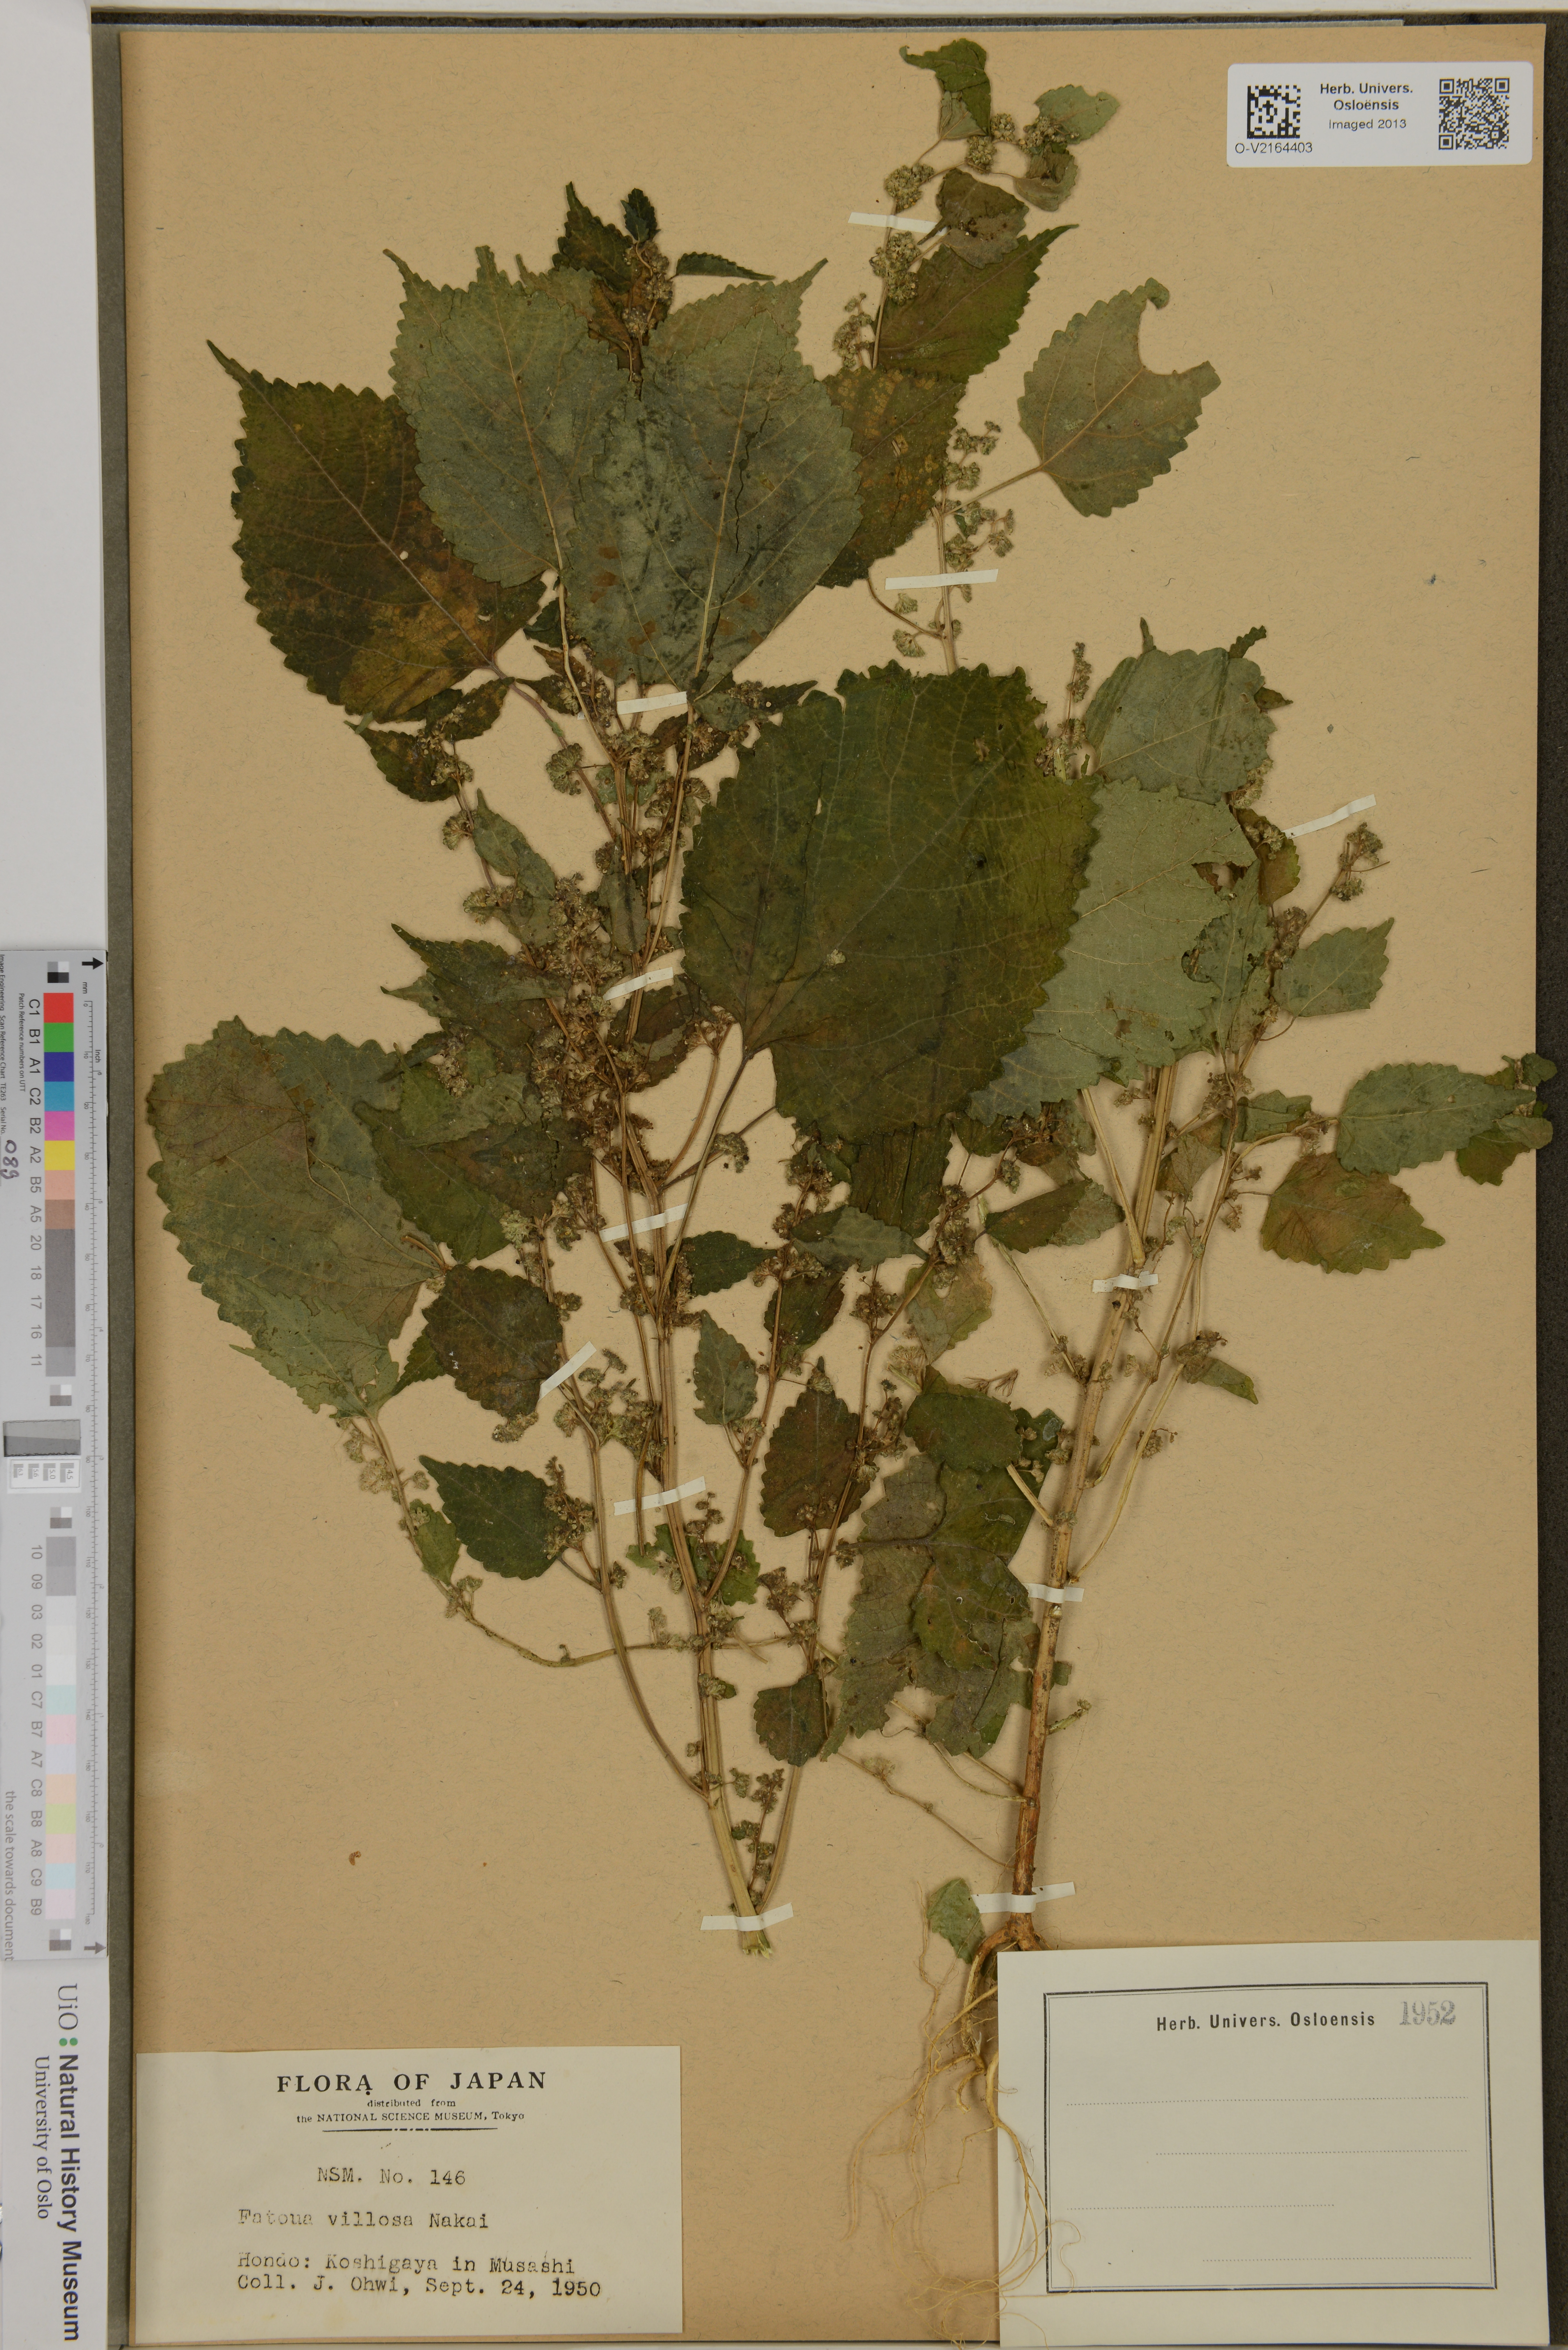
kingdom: Plantae
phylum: Tracheophyta
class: Magnoliopsida
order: Rosales
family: Moraceae
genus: Fatoua
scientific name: Fatoua villosa
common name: Hairy crabweed
